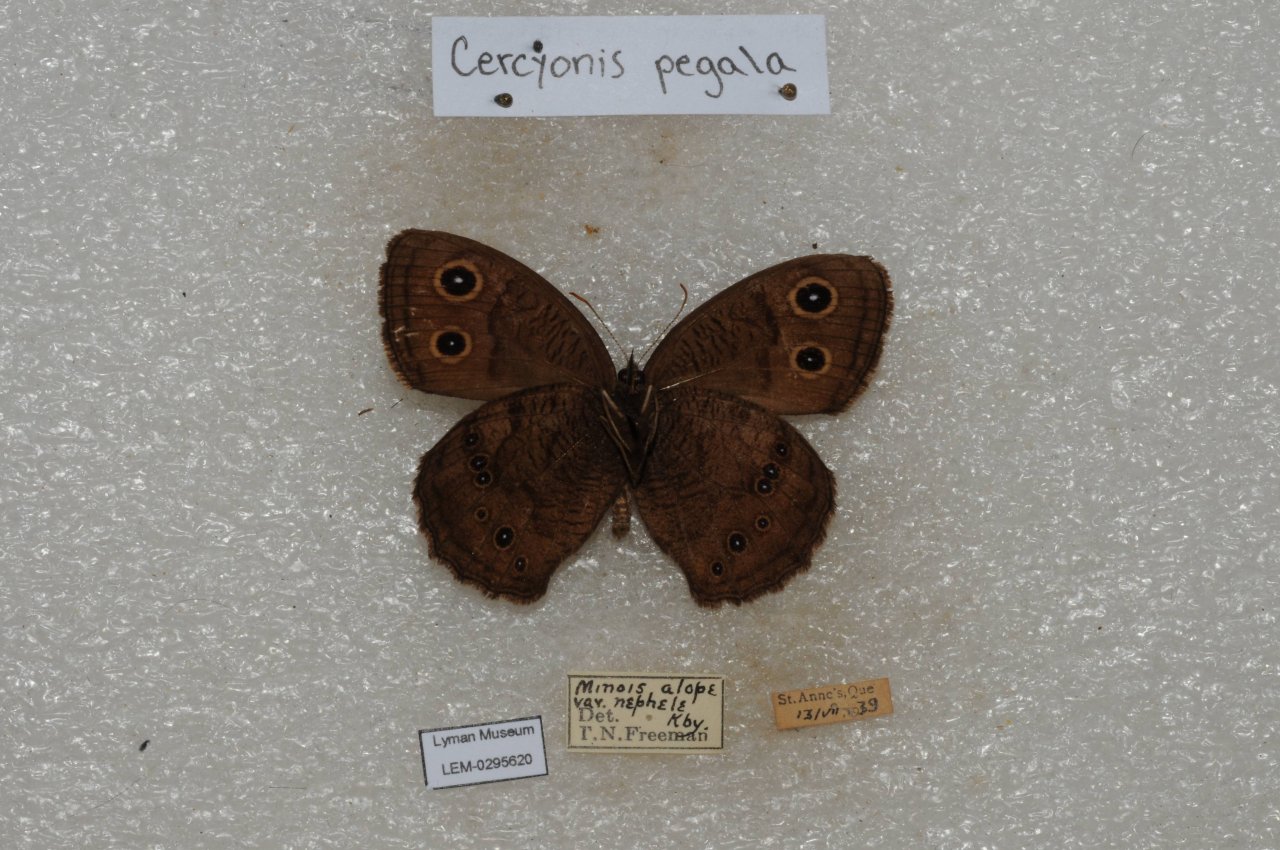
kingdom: Animalia
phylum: Arthropoda
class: Insecta
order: Lepidoptera
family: Nymphalidae
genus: Cercyonis
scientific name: Cercyonis pegala
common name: Common Wood-Nymph
